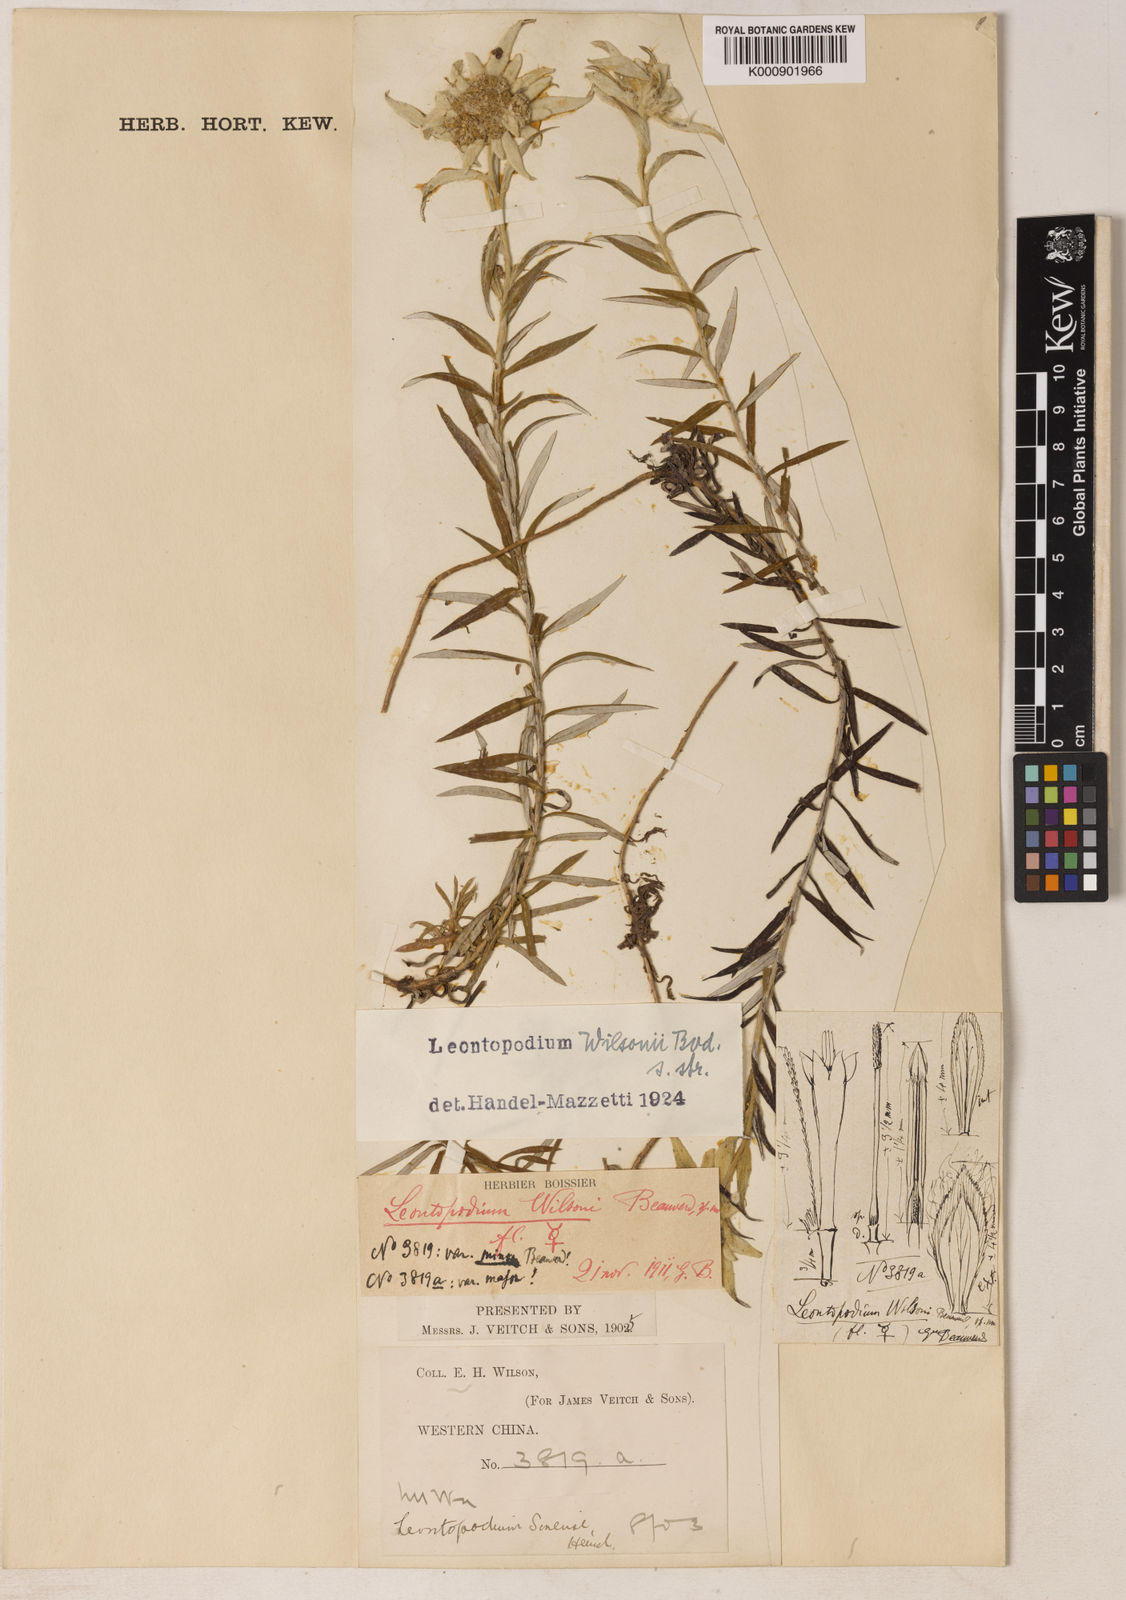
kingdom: Plantae
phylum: Tracheophyta
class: Magnoliopsida
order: Asterales
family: Asteraceae
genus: Leontopodium
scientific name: Leontopodium wilsonii
